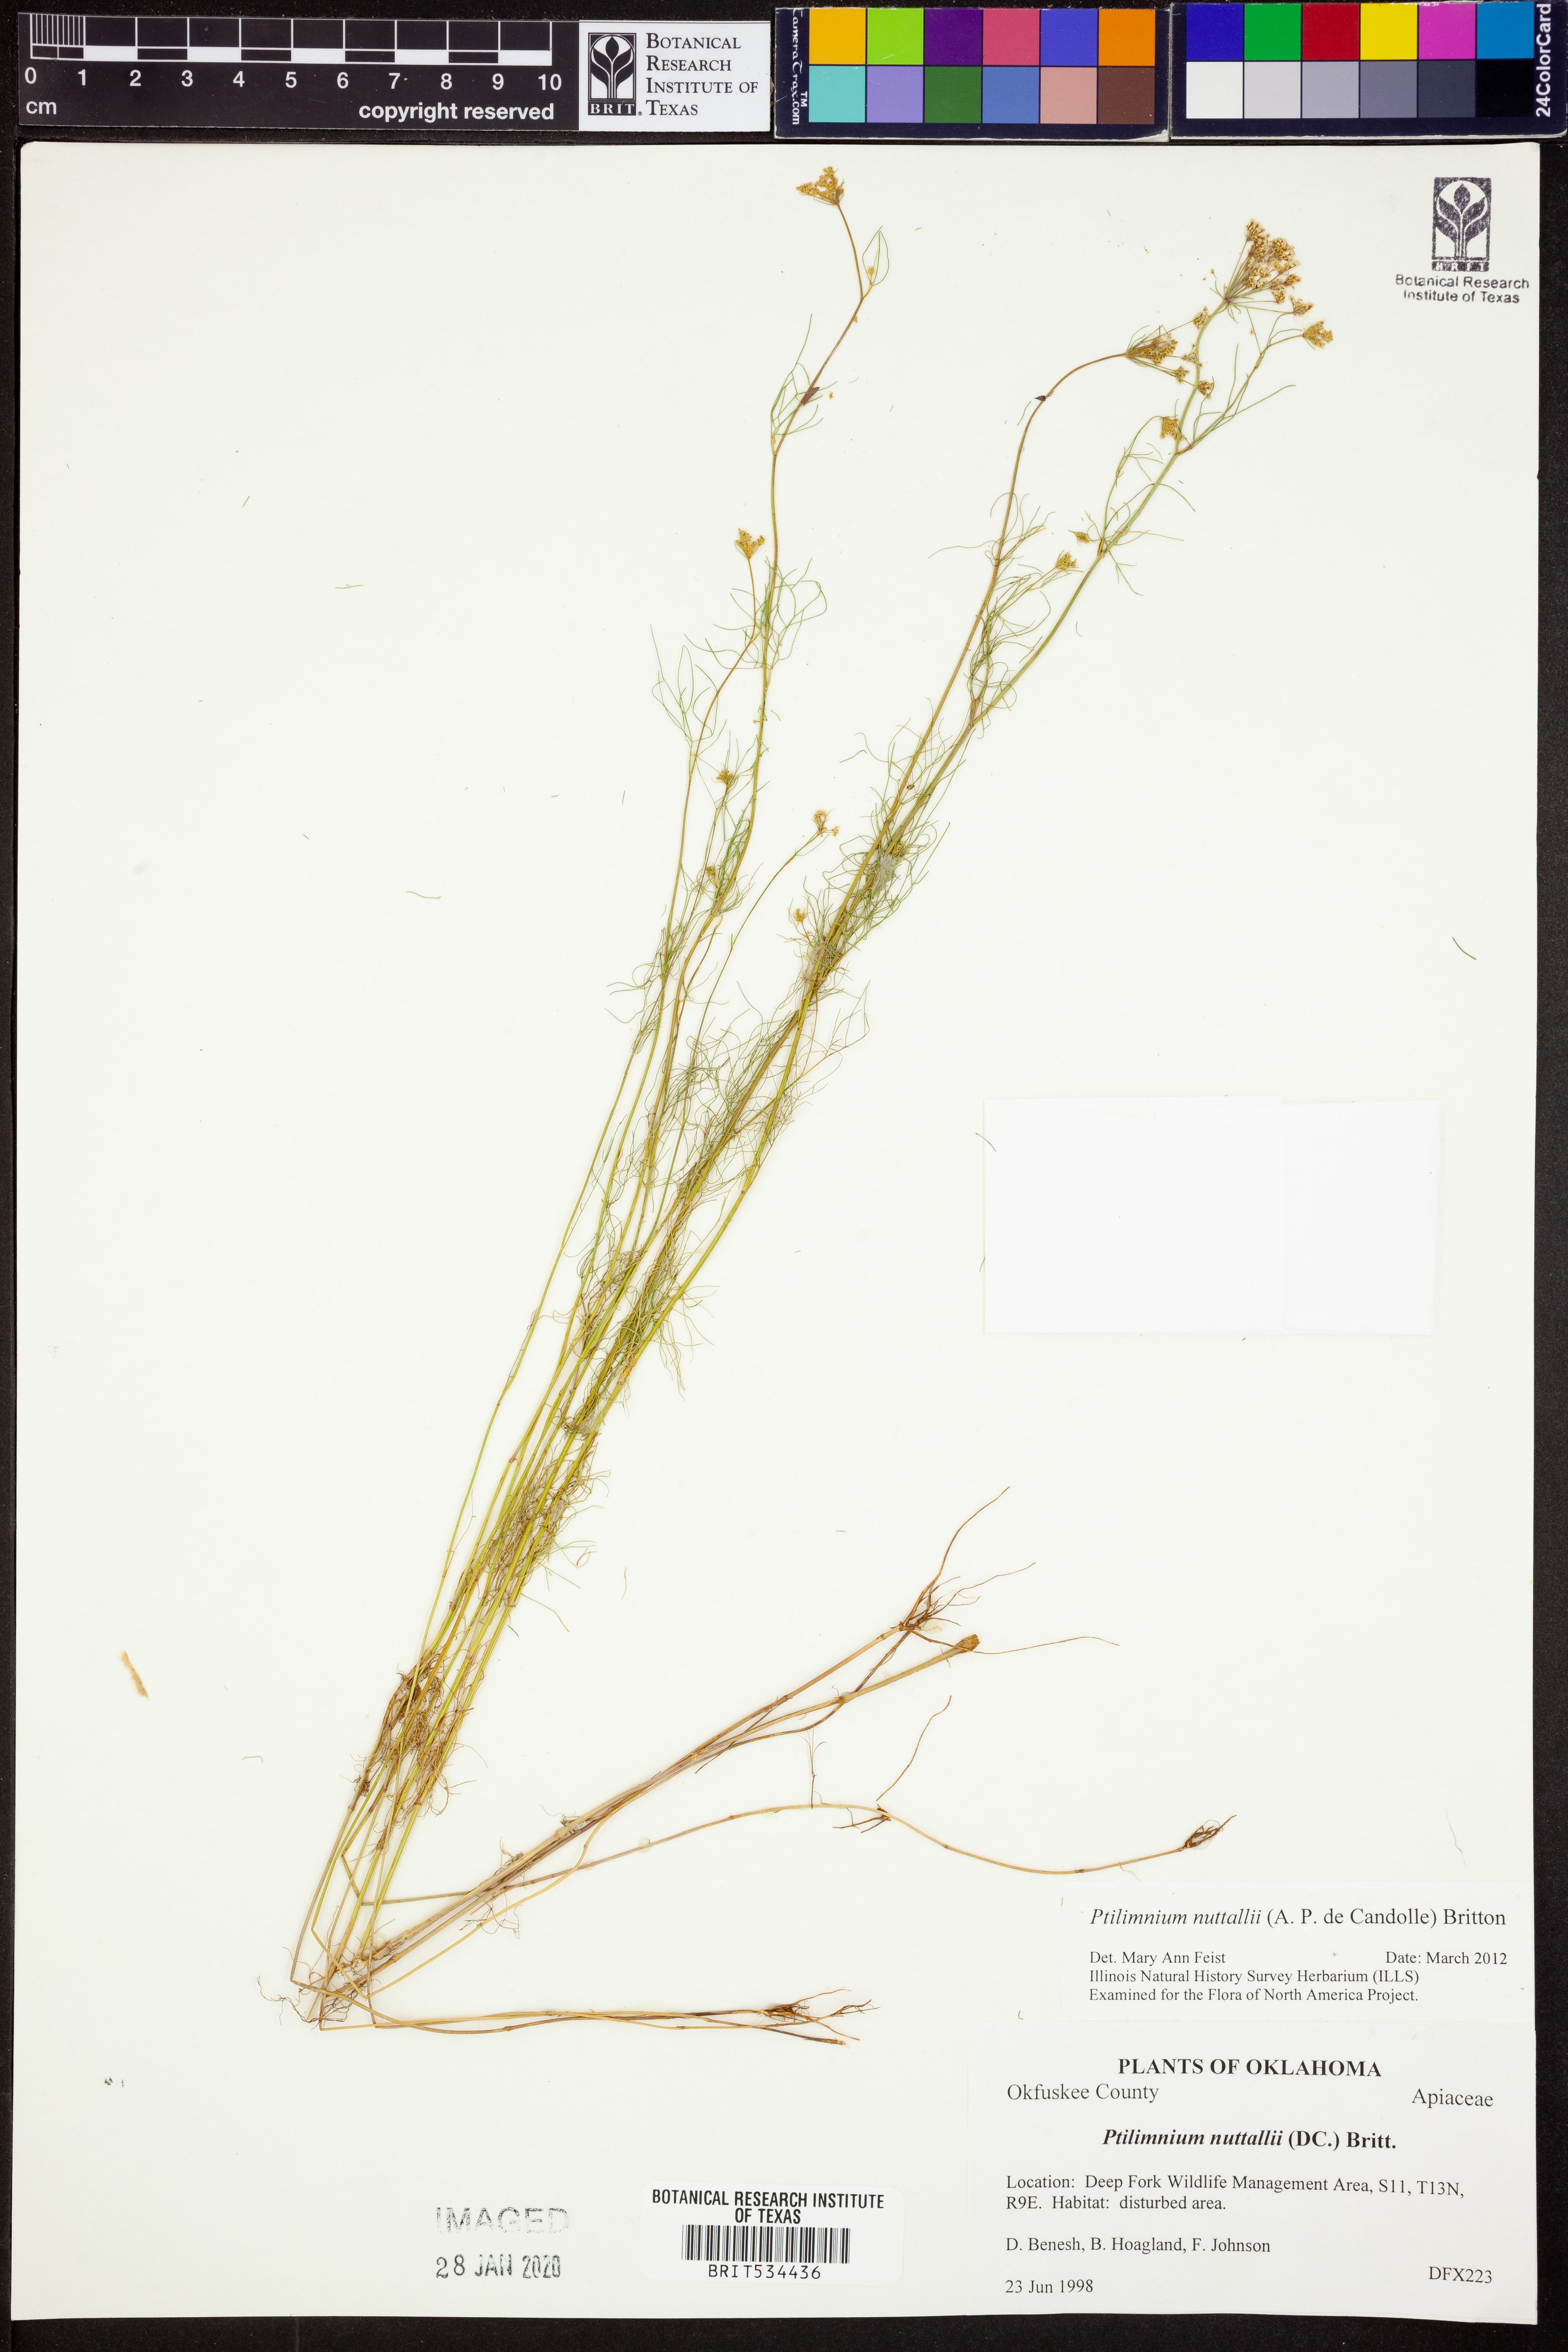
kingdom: Plantae
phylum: Tracheophyta
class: Magnoliopsida
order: Apiales
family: Apiaceae
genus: Ptilimnium
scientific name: Ptilimnium nuttallii
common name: Ozark bishop's-weed
